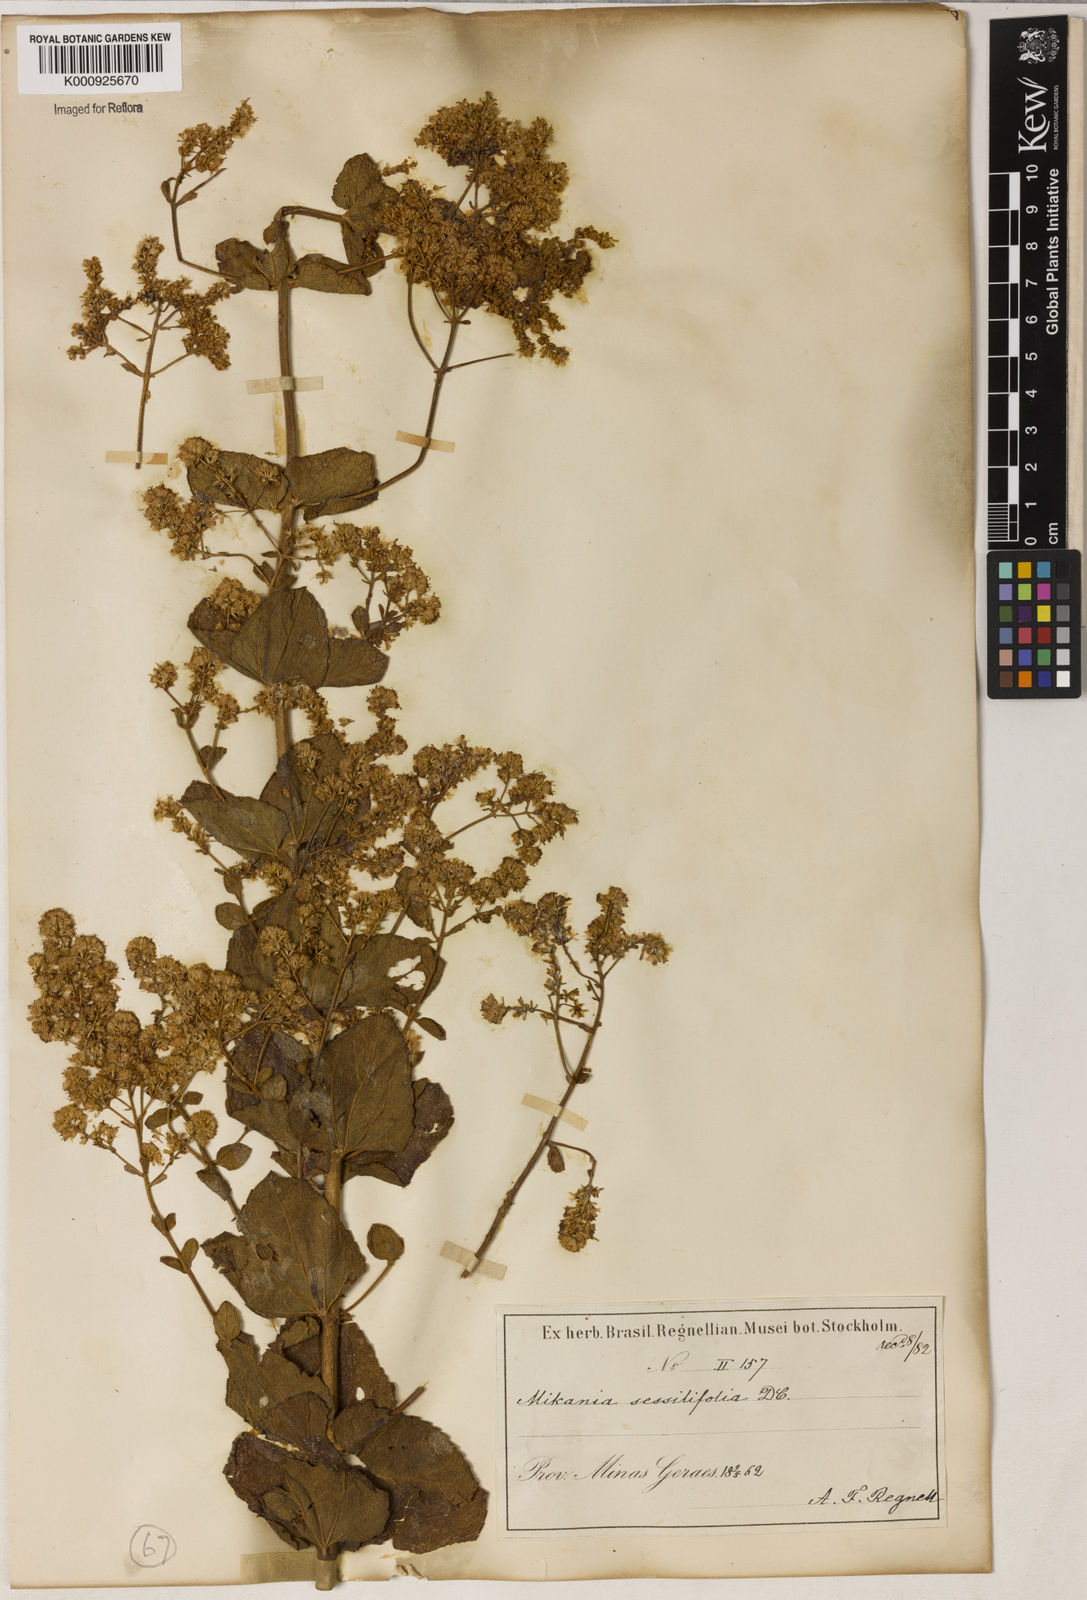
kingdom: Plantae
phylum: Tracheophyta
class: Magnoliopsida
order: Asterales
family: Asteraceae
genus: Mikania
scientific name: Mikania sessilifolia
